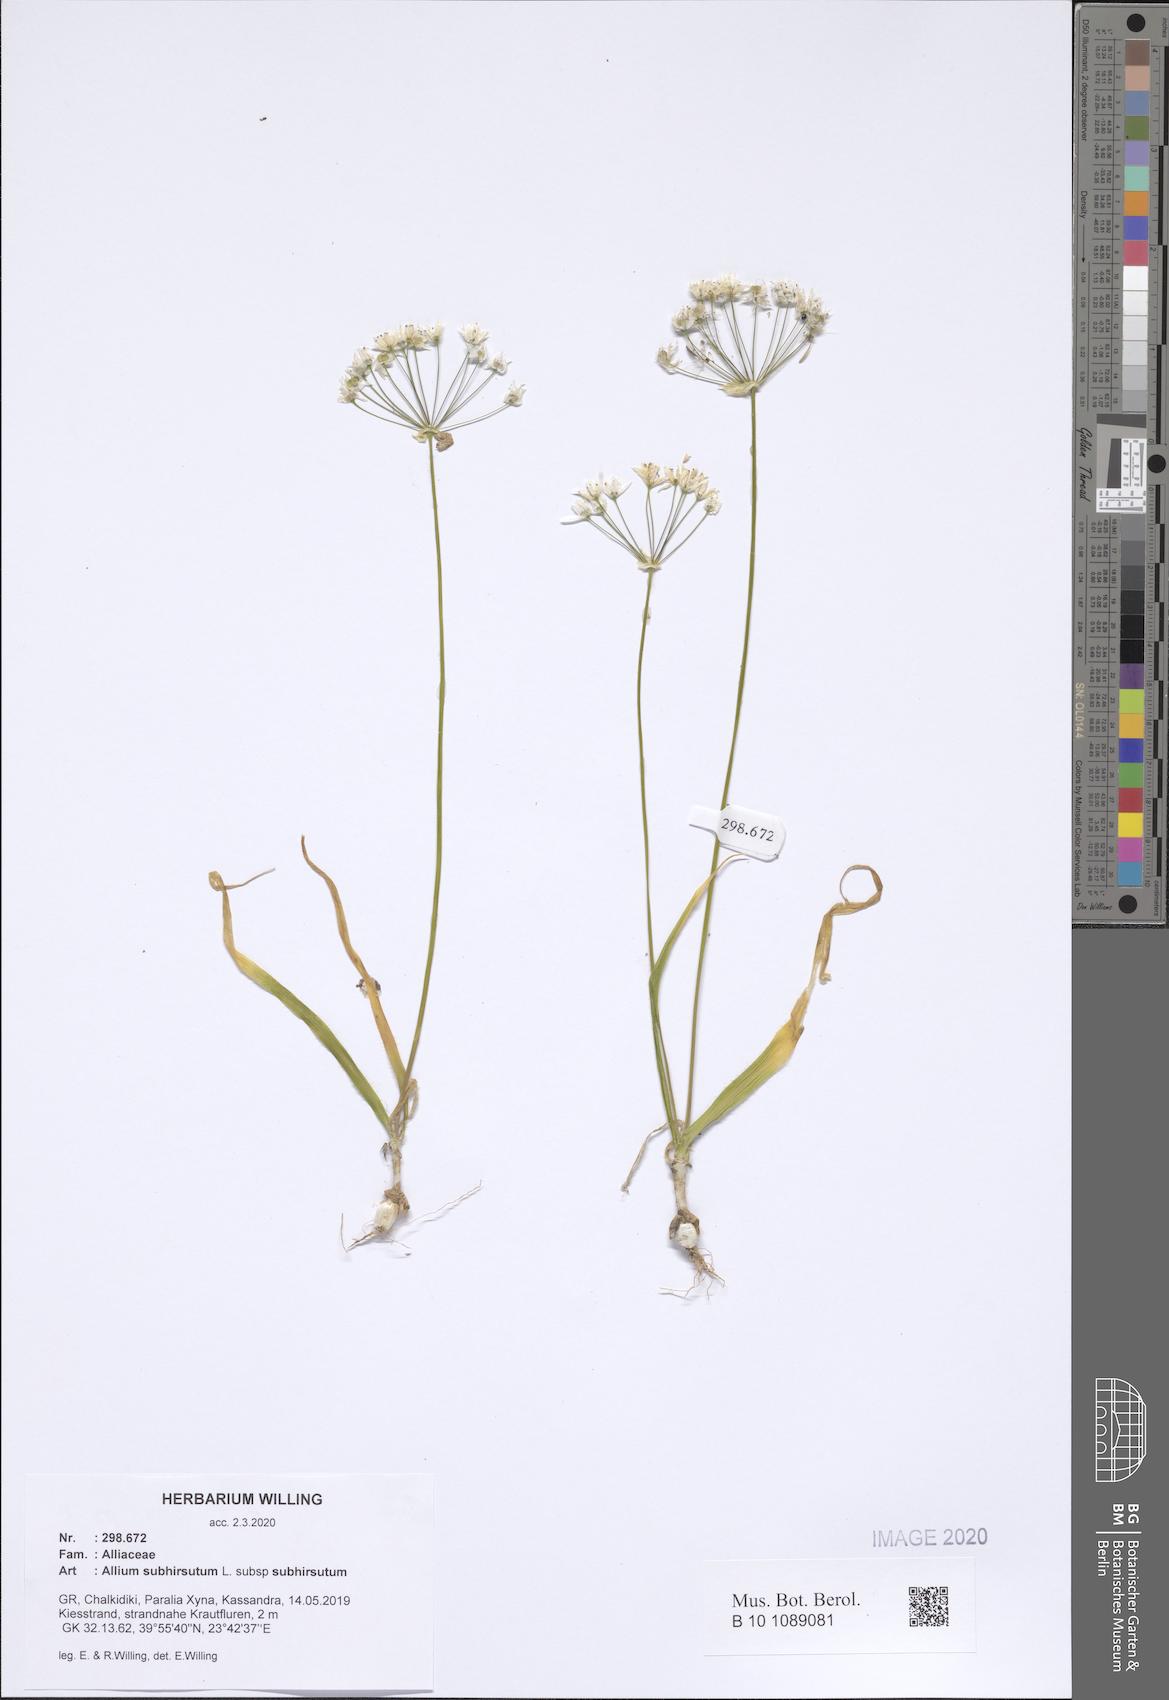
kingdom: Plantae
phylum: Tracheophyta
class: Liliopsida
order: Asparagales
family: Amaryllidaceae
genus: Allium
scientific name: Allium subhirsutum
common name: Hairy garlic
